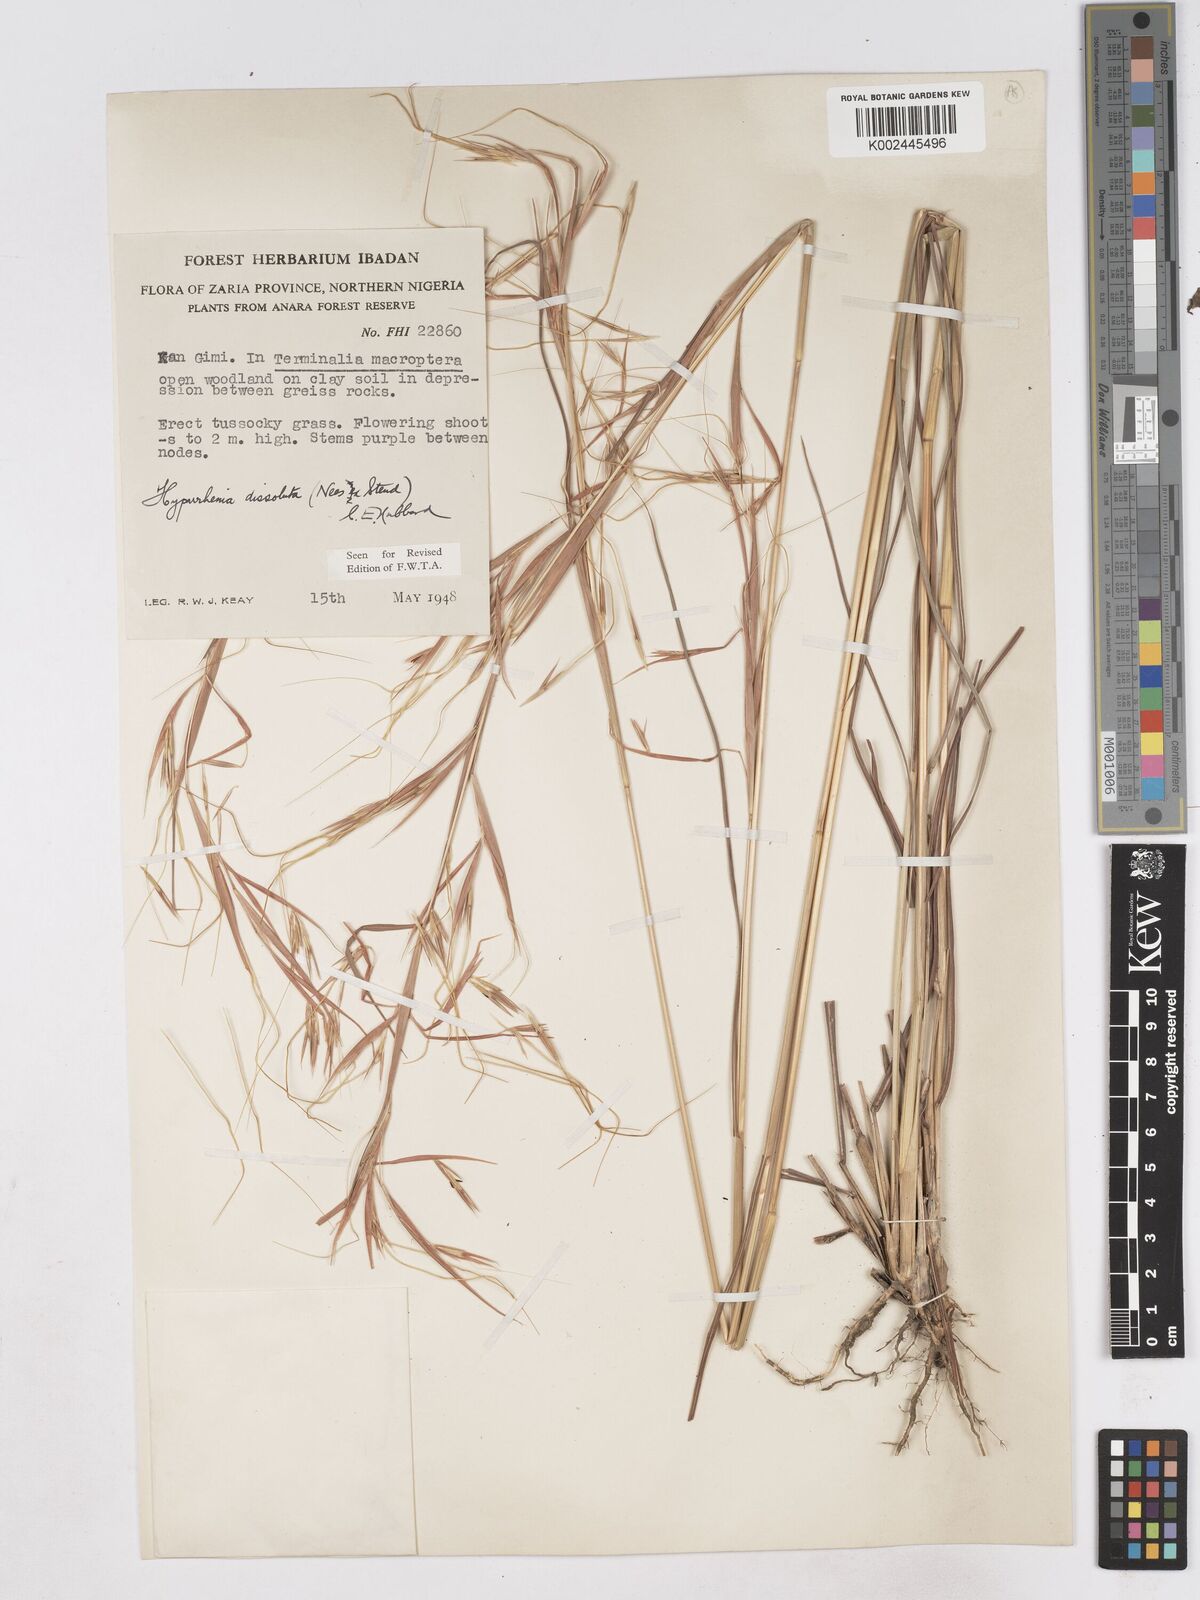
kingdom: Plantae
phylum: Tracheophyta
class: Liliopsida
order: Poales
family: Poaceae
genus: Hyperthelia
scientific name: Hyperthelia dissoluta
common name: Yellow thatching grass
